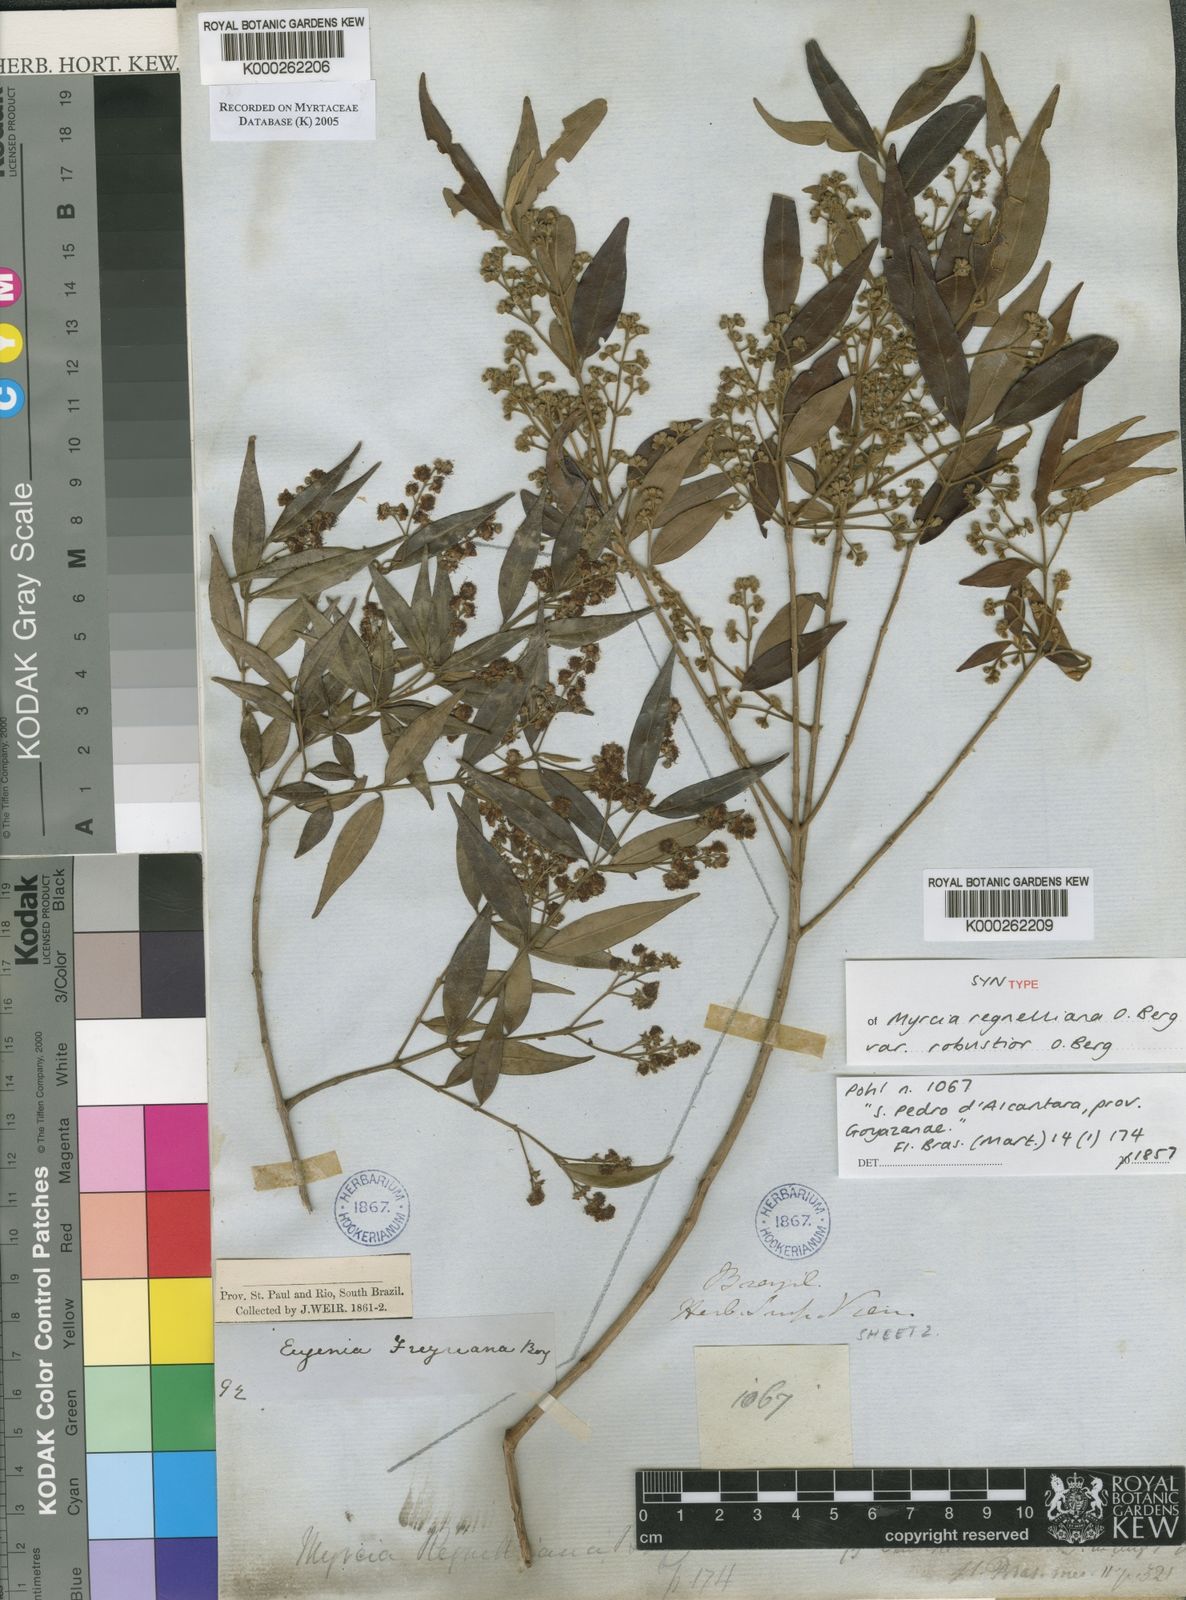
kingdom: Plantae
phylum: Tracheophyta
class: Magnoliopsida
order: Myrtales
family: Myrtaceae
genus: Myrcia
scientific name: Myrcia regnelliana
